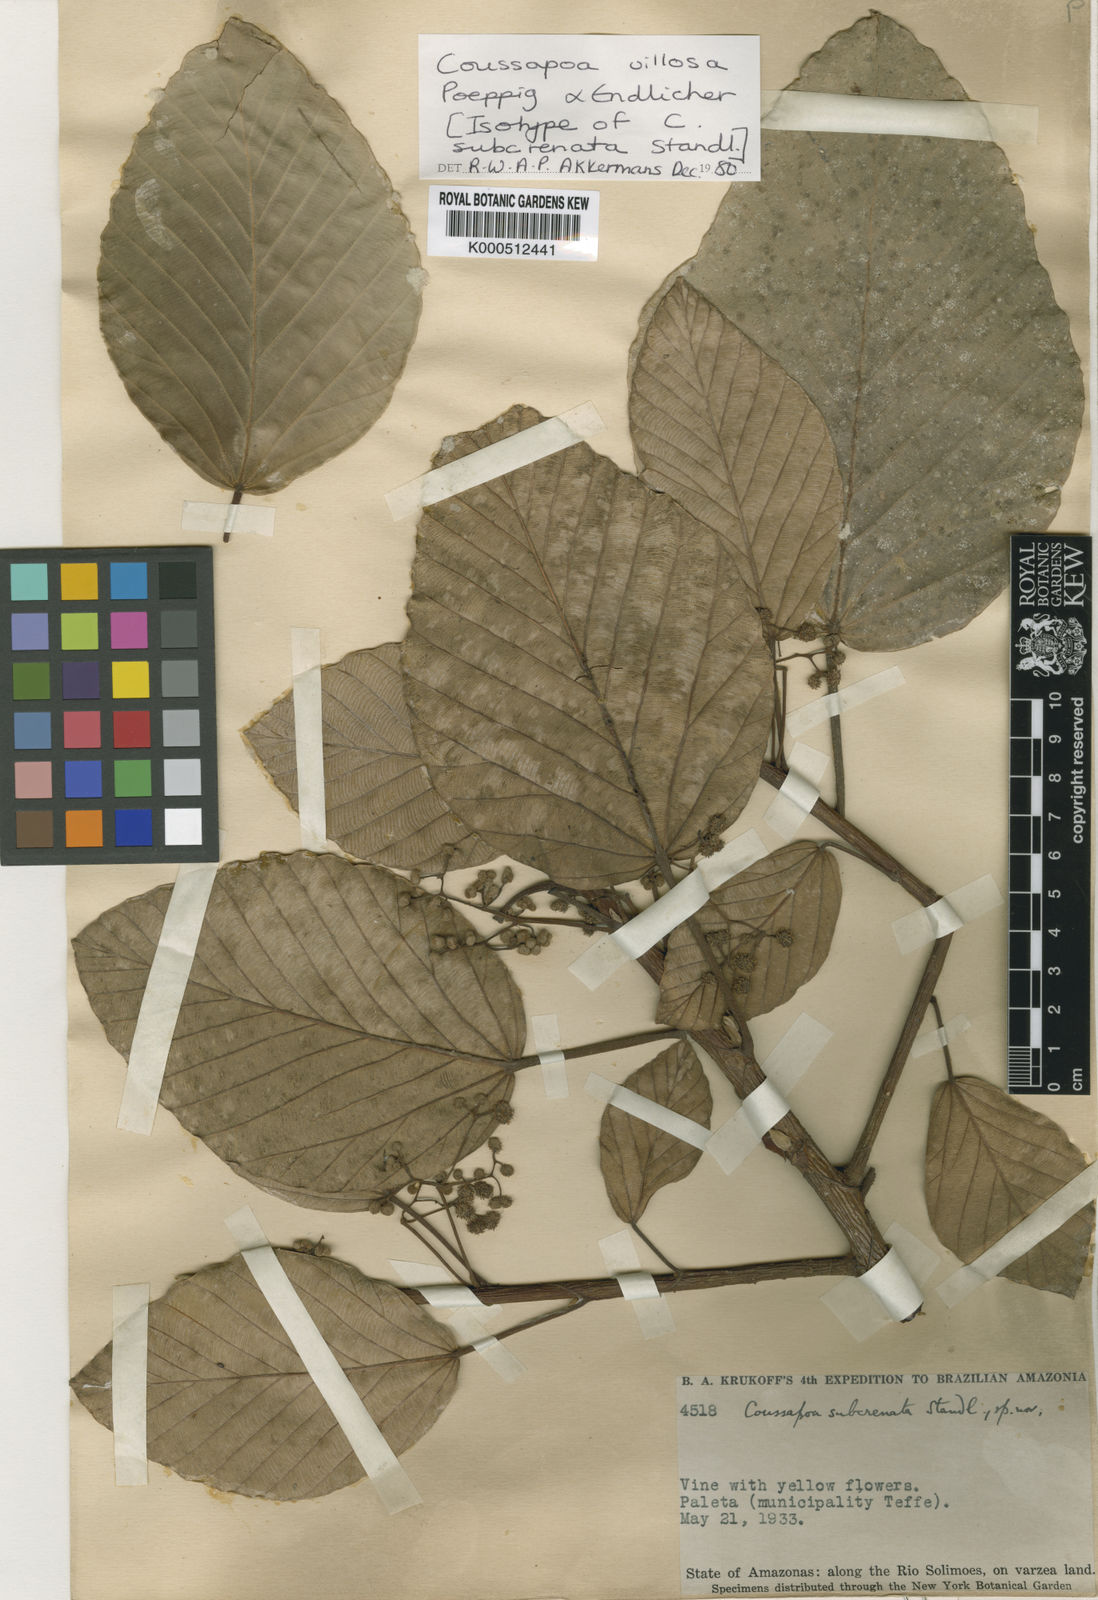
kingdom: Plantae
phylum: Tracheophyta
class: Magnoliopsida
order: Rosales
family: Urticaceae
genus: Coussapoa
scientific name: Coussapoa villosa
